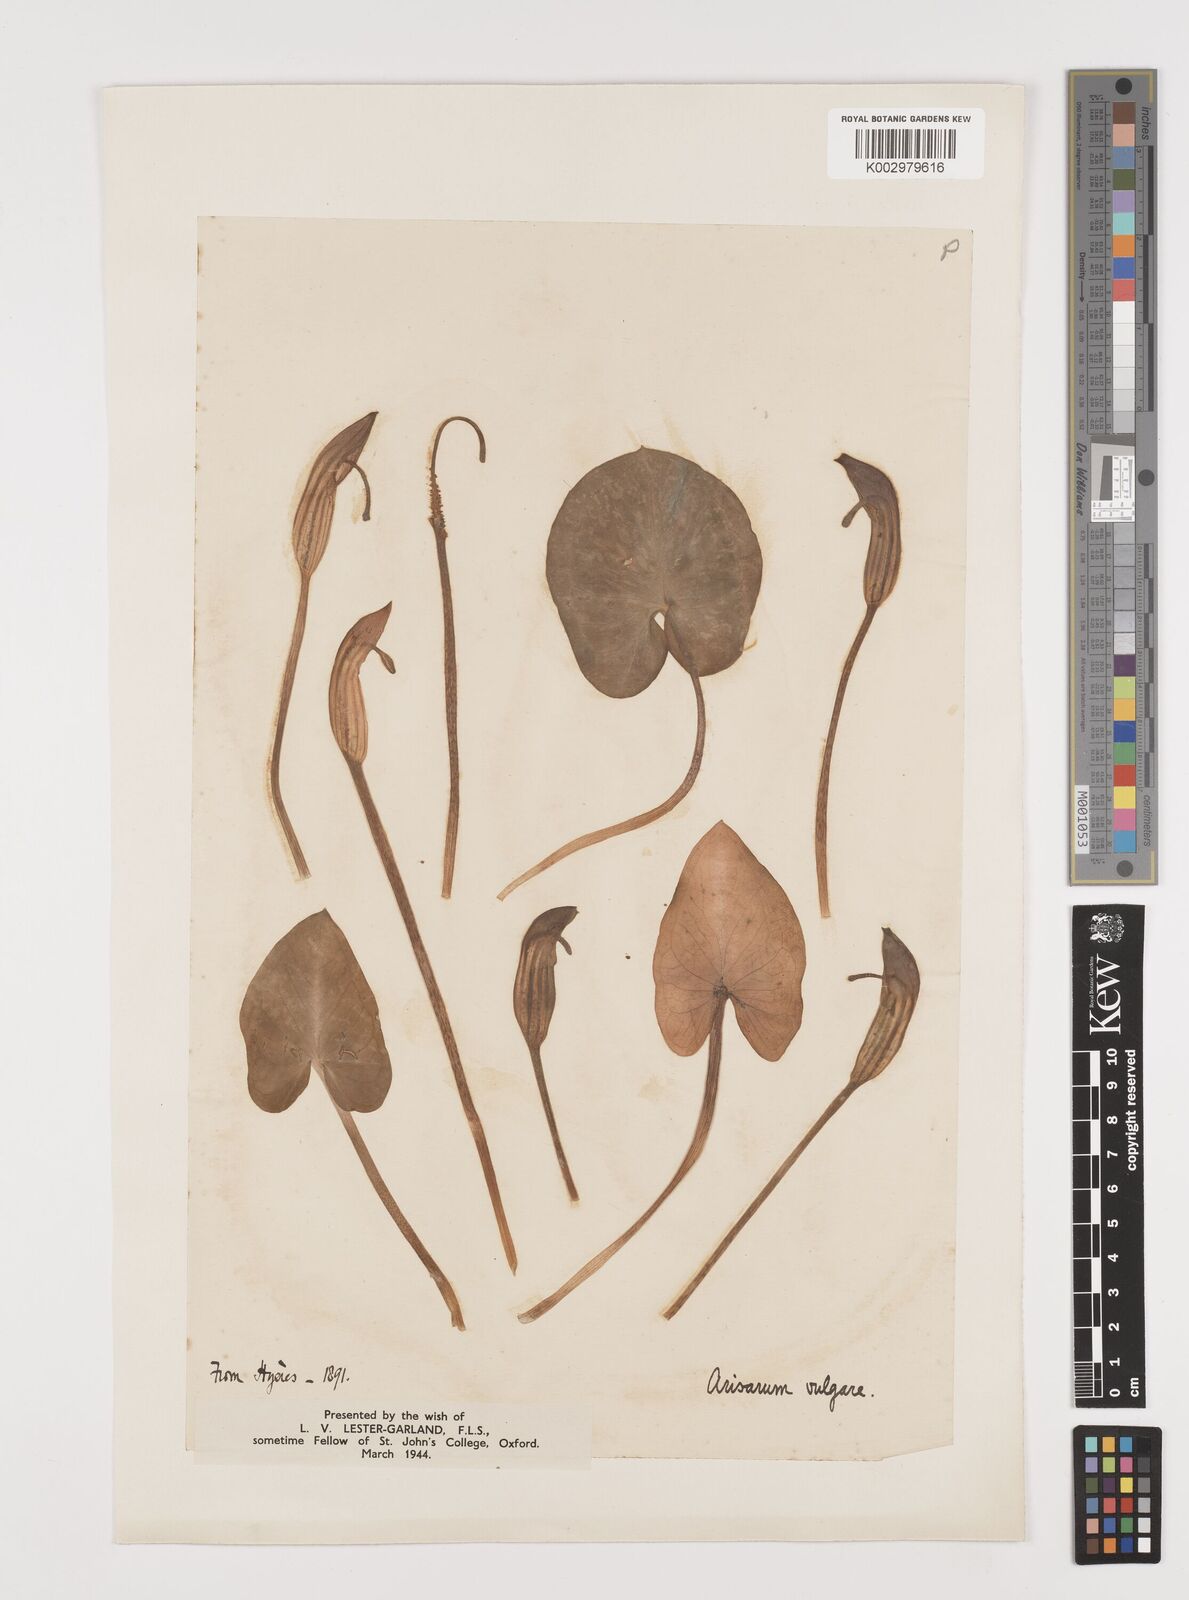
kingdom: Plantae
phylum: Tracheophyta
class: Liliopsida
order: Alismatales
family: Araceae
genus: Arisarum
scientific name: Arisarum vulgare
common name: Common arisarum
